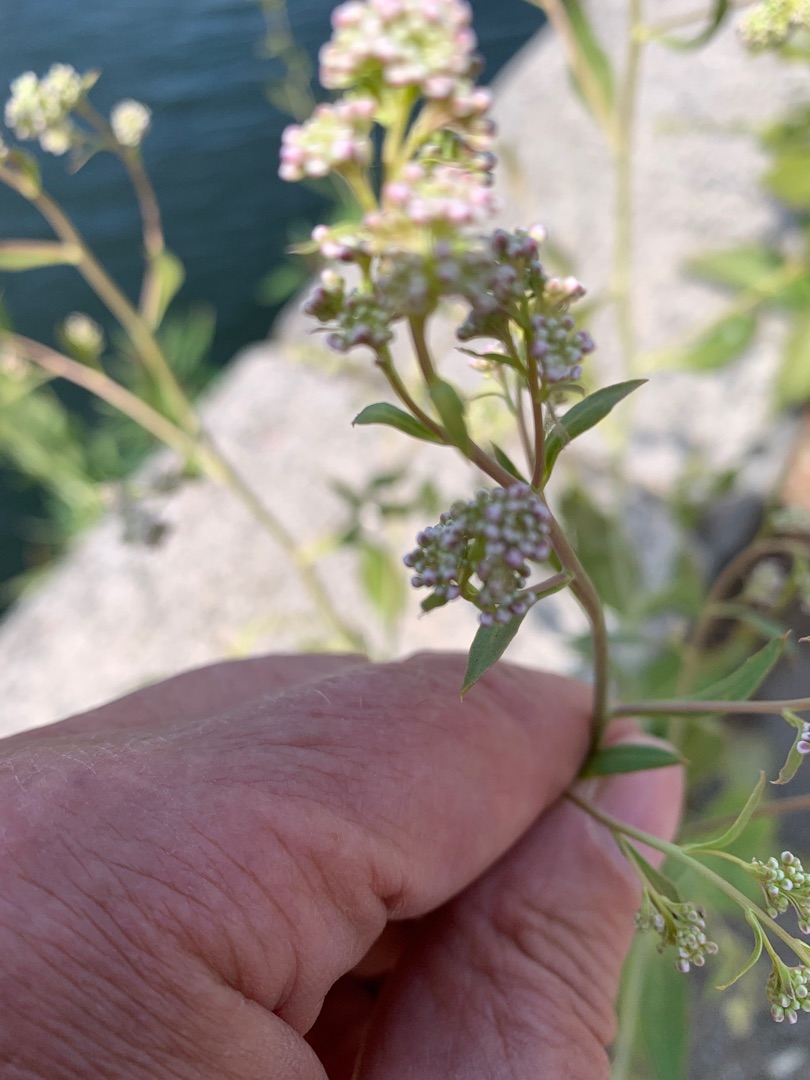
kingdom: Plantae
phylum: Tracheophyta
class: Magnoliopsida
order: Brassicales
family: Brassicaceae
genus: Lepidium
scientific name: Lepidium latifolium
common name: Strand-karse
